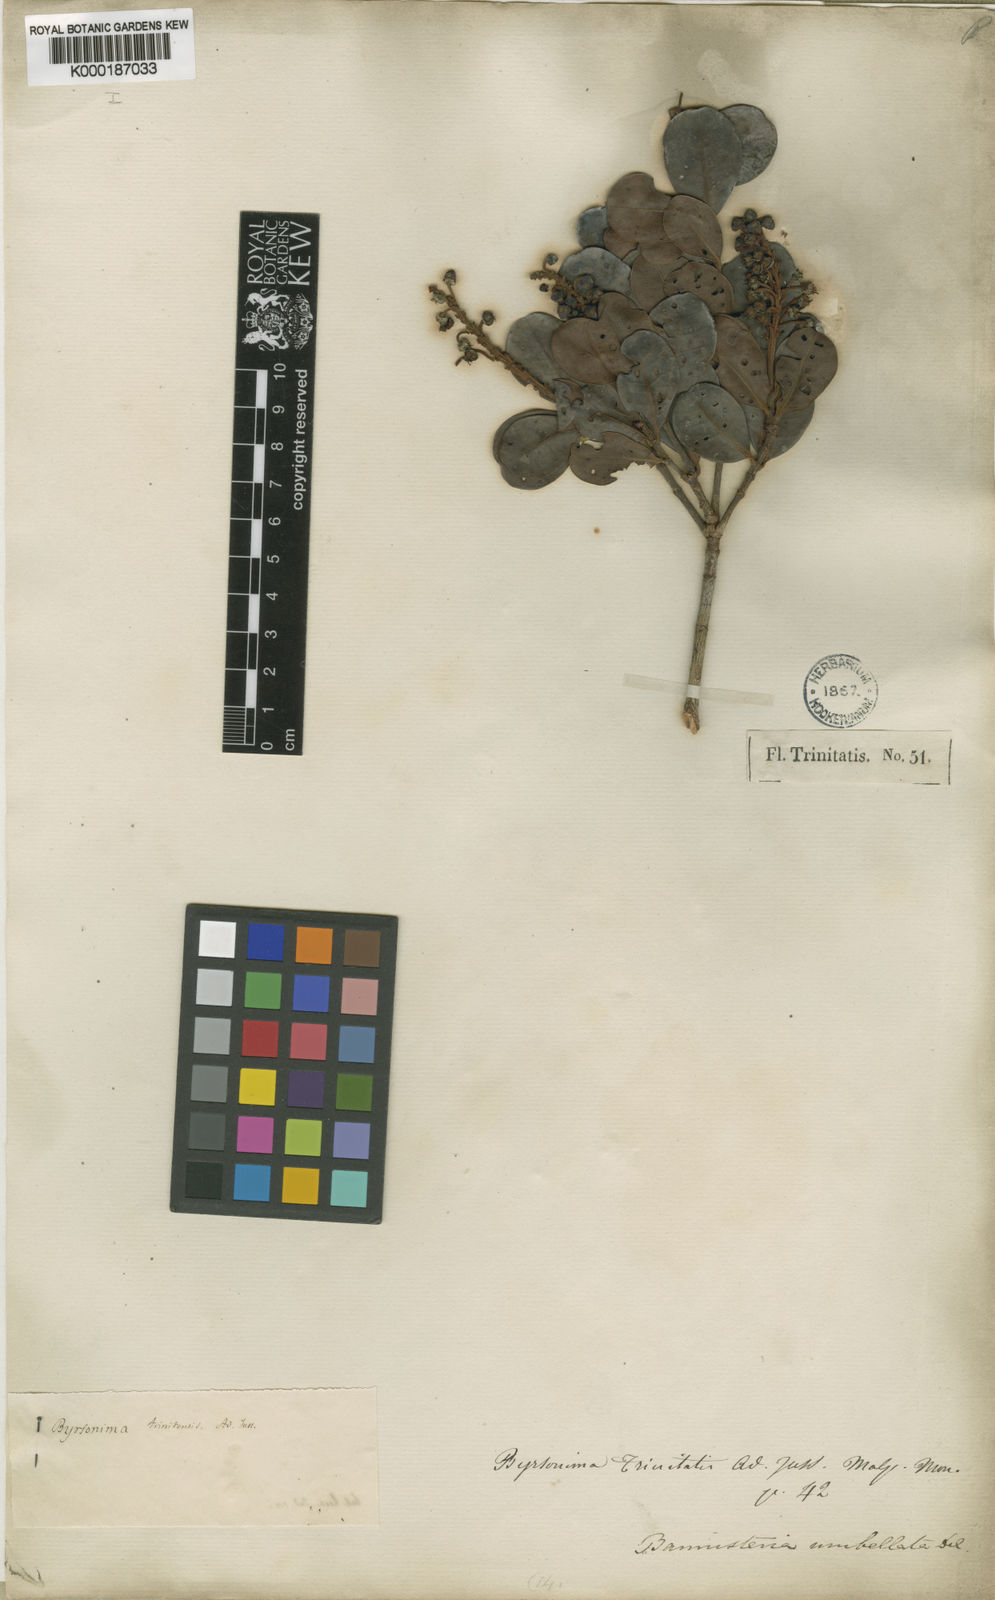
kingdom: Plantae
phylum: Tracheophyta
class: Magnoliopsida
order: Malpighiales
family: Malpighiaceae
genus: Byrsonima
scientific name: Byrsonima trinitensis
